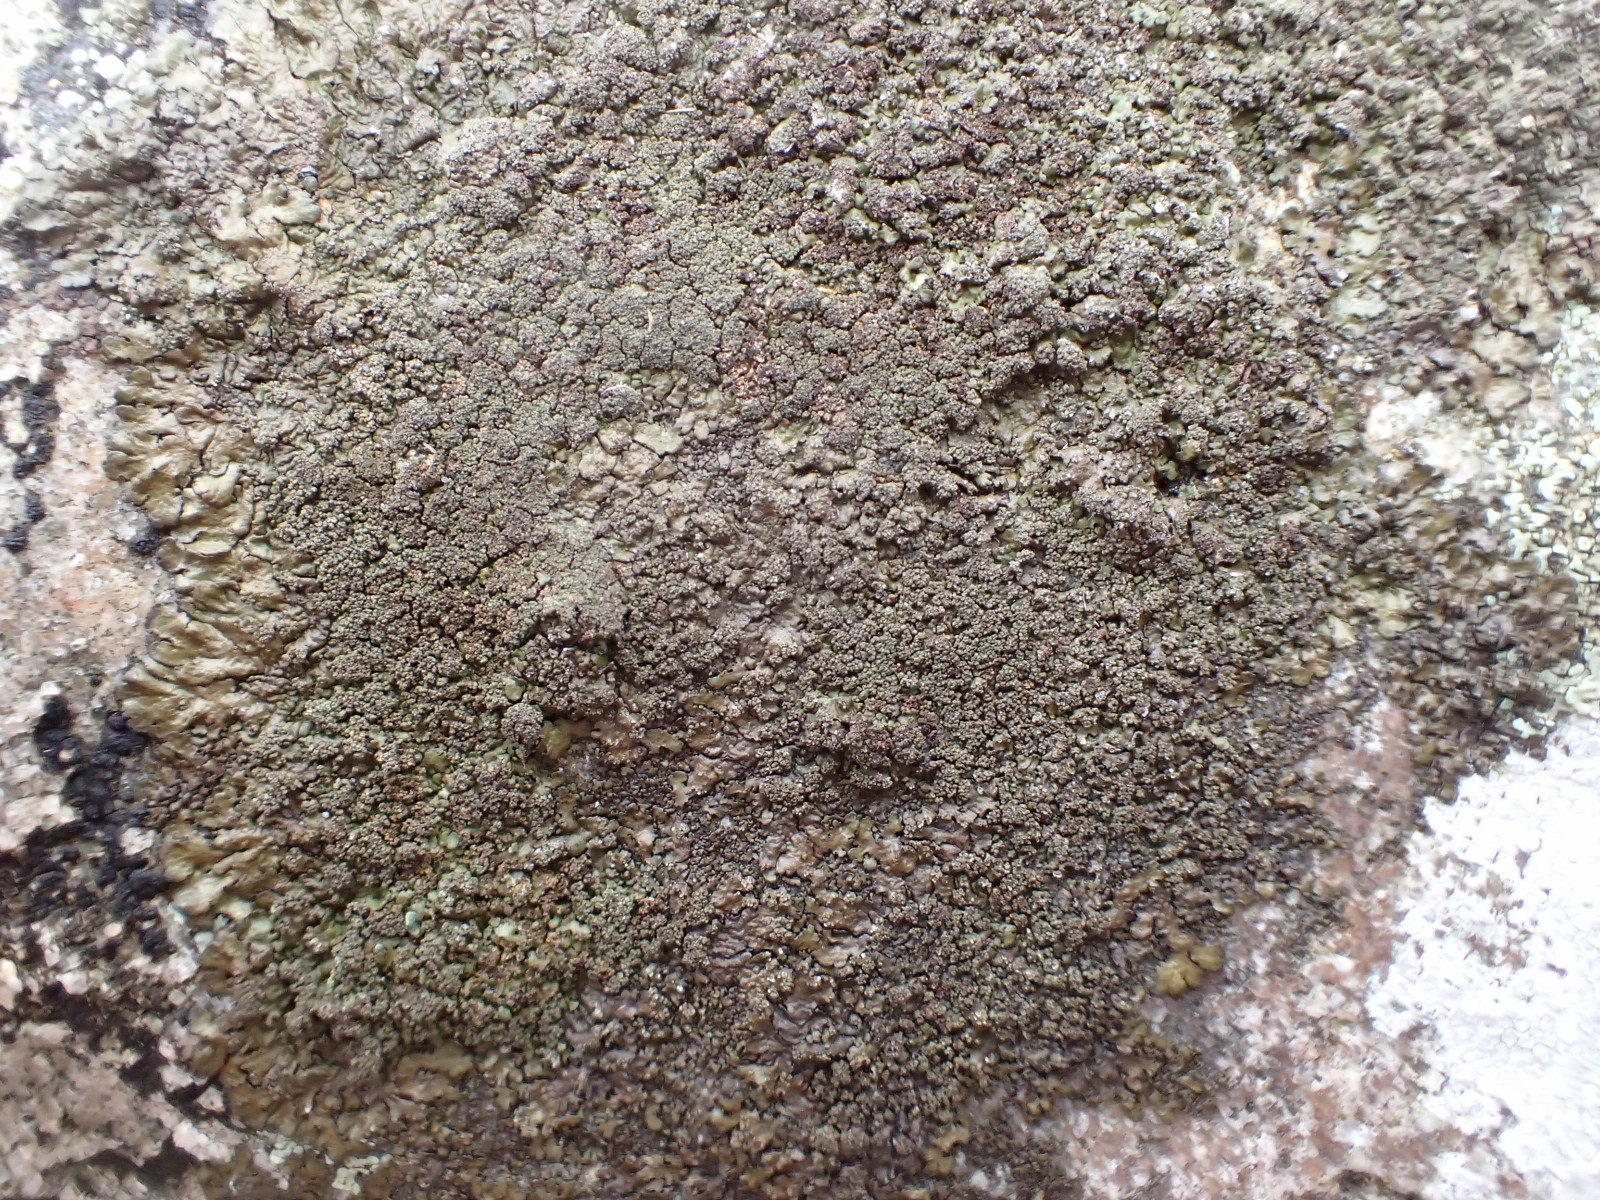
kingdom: Fungi
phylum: Ascomycota
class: Lecanoromycetes
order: Lecanorales
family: Parmeliaceae
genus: Xanthoparmelia
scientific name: Xanthoparmelia verruculifera
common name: småknoppet skållav
